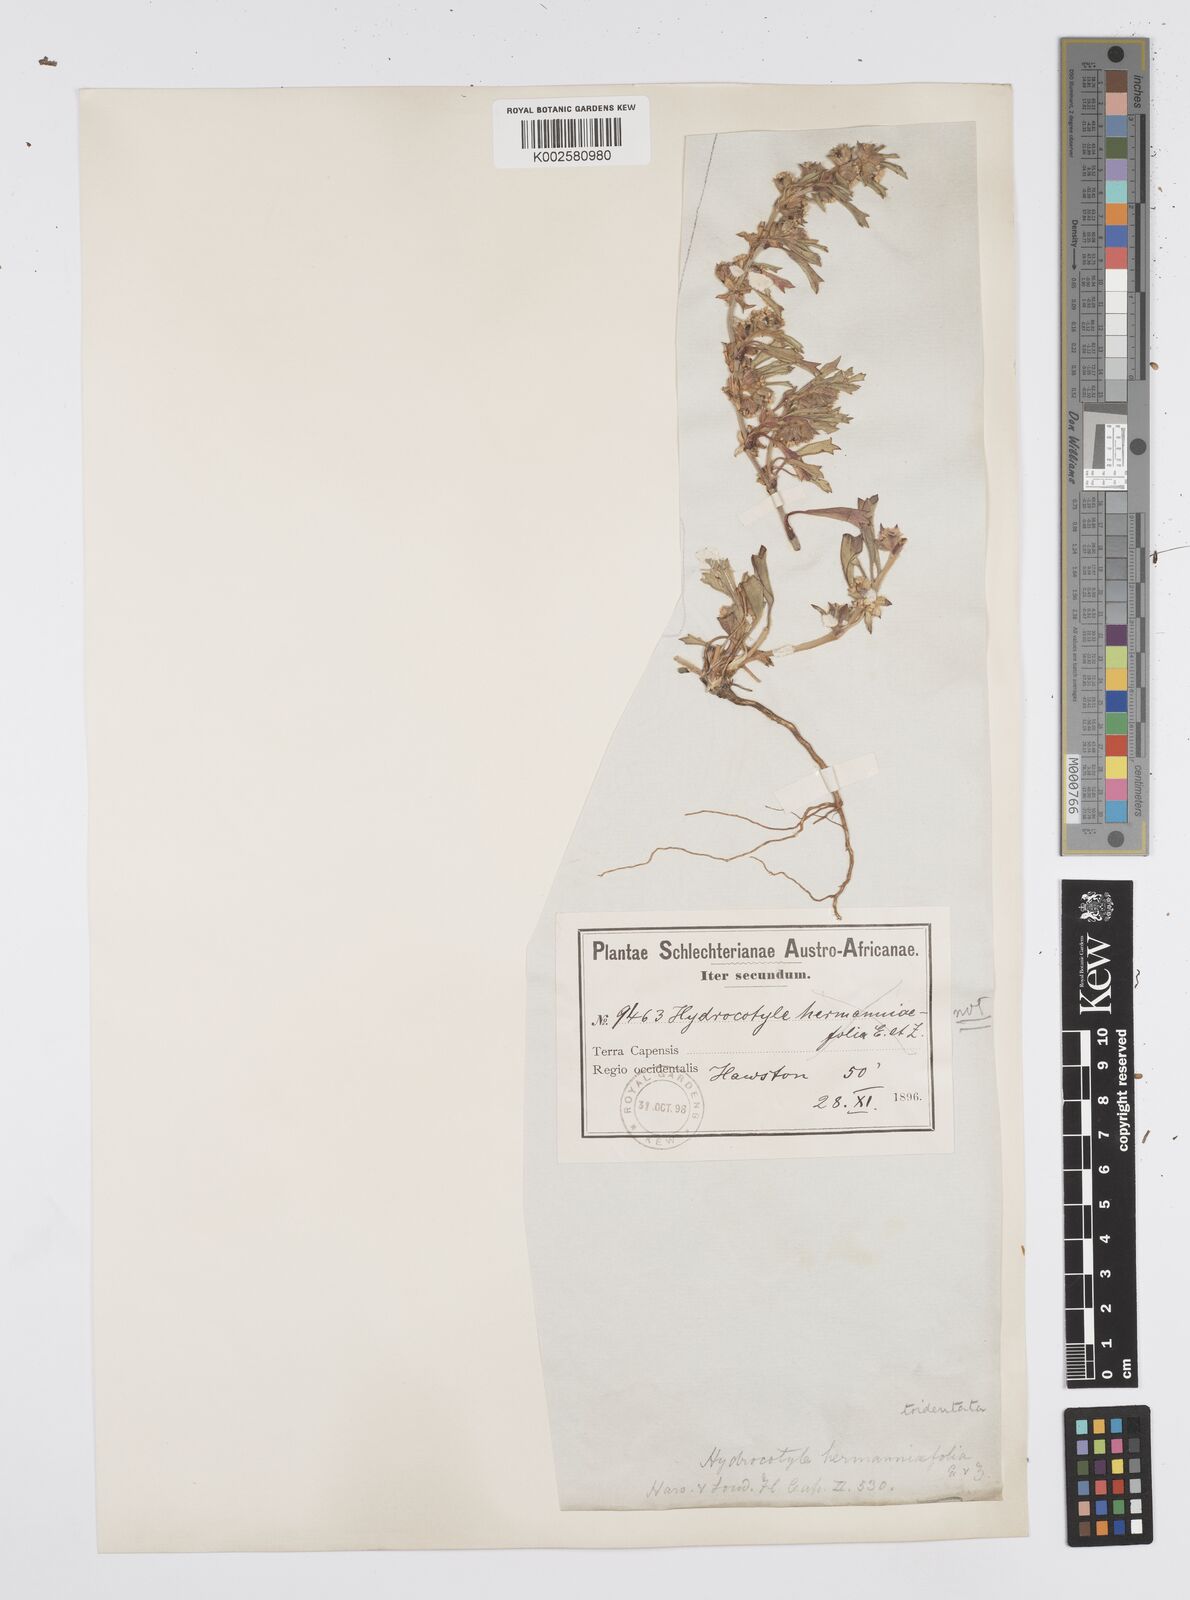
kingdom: Plantae
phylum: Tracheophyta
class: Magnoliopsida
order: Apiales
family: Apiaceae
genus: Centella
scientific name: Centella tridentata
